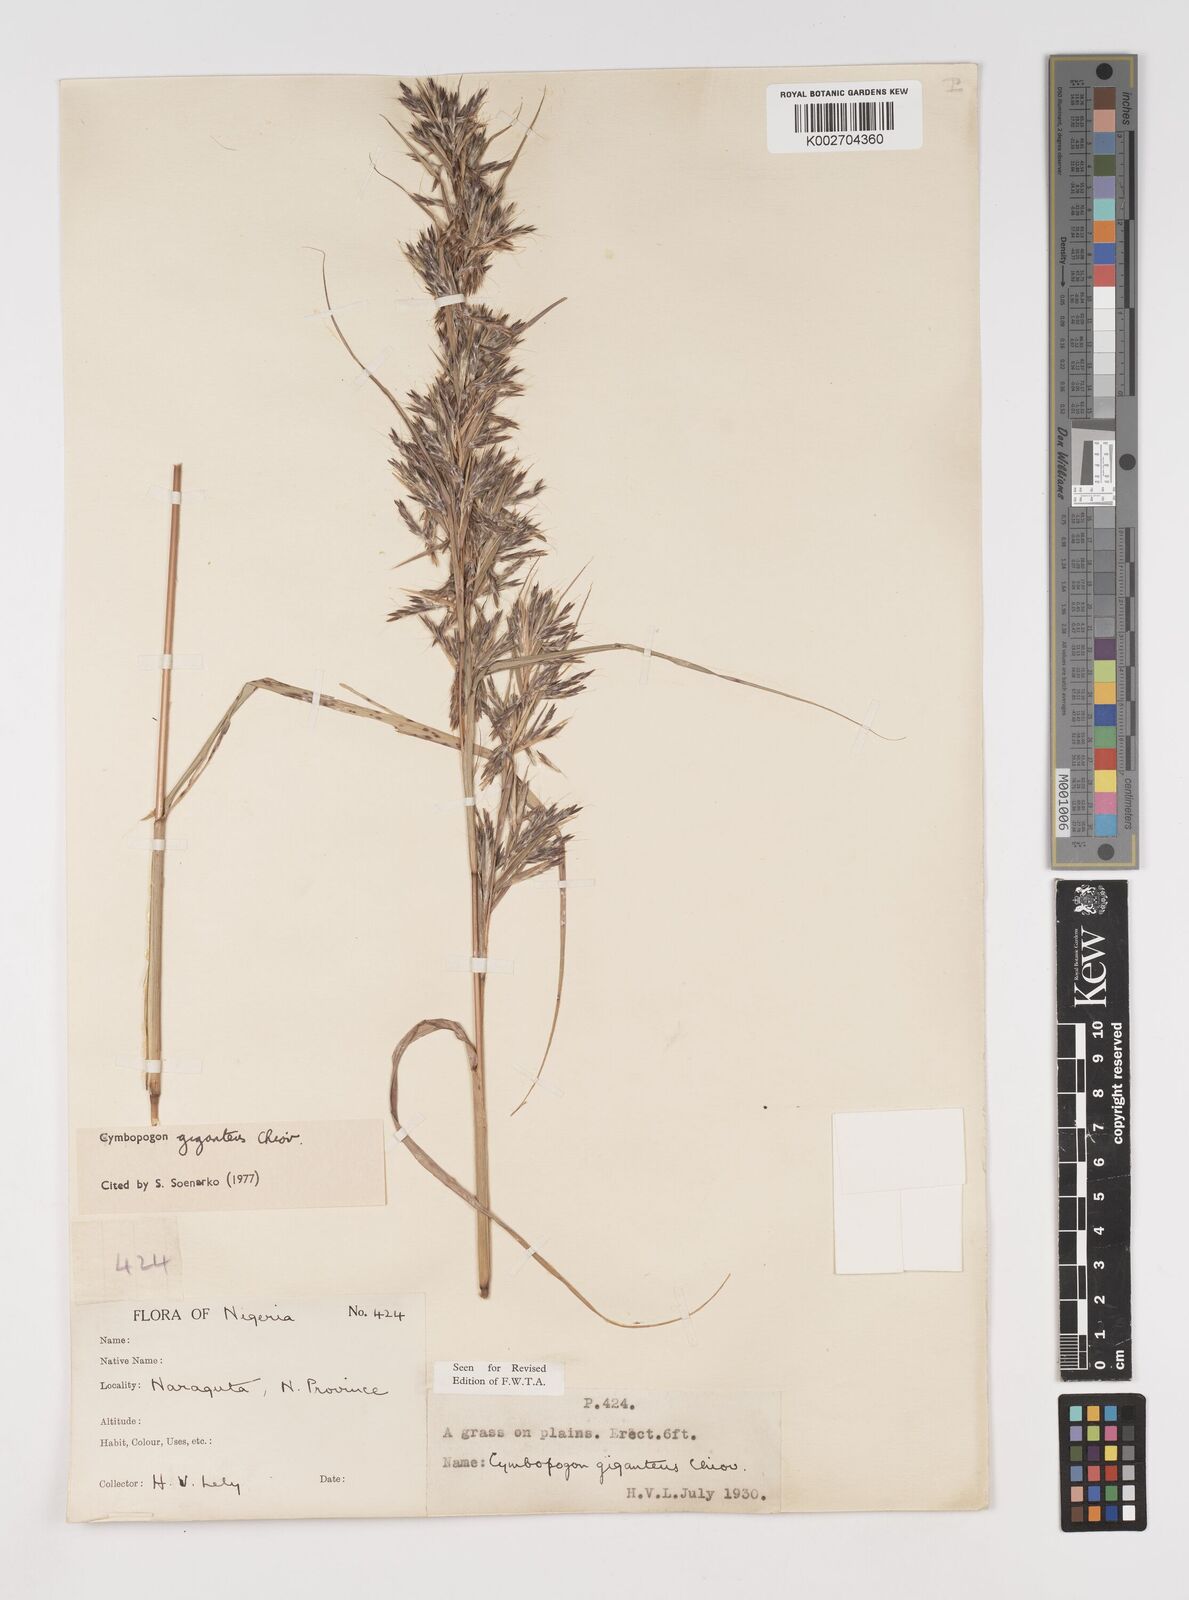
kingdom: Plantae
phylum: Tracheophyta
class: Liliopsida
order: Poales
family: Poaceae
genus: Cymbopogon
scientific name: Cymbopogon giganteus
